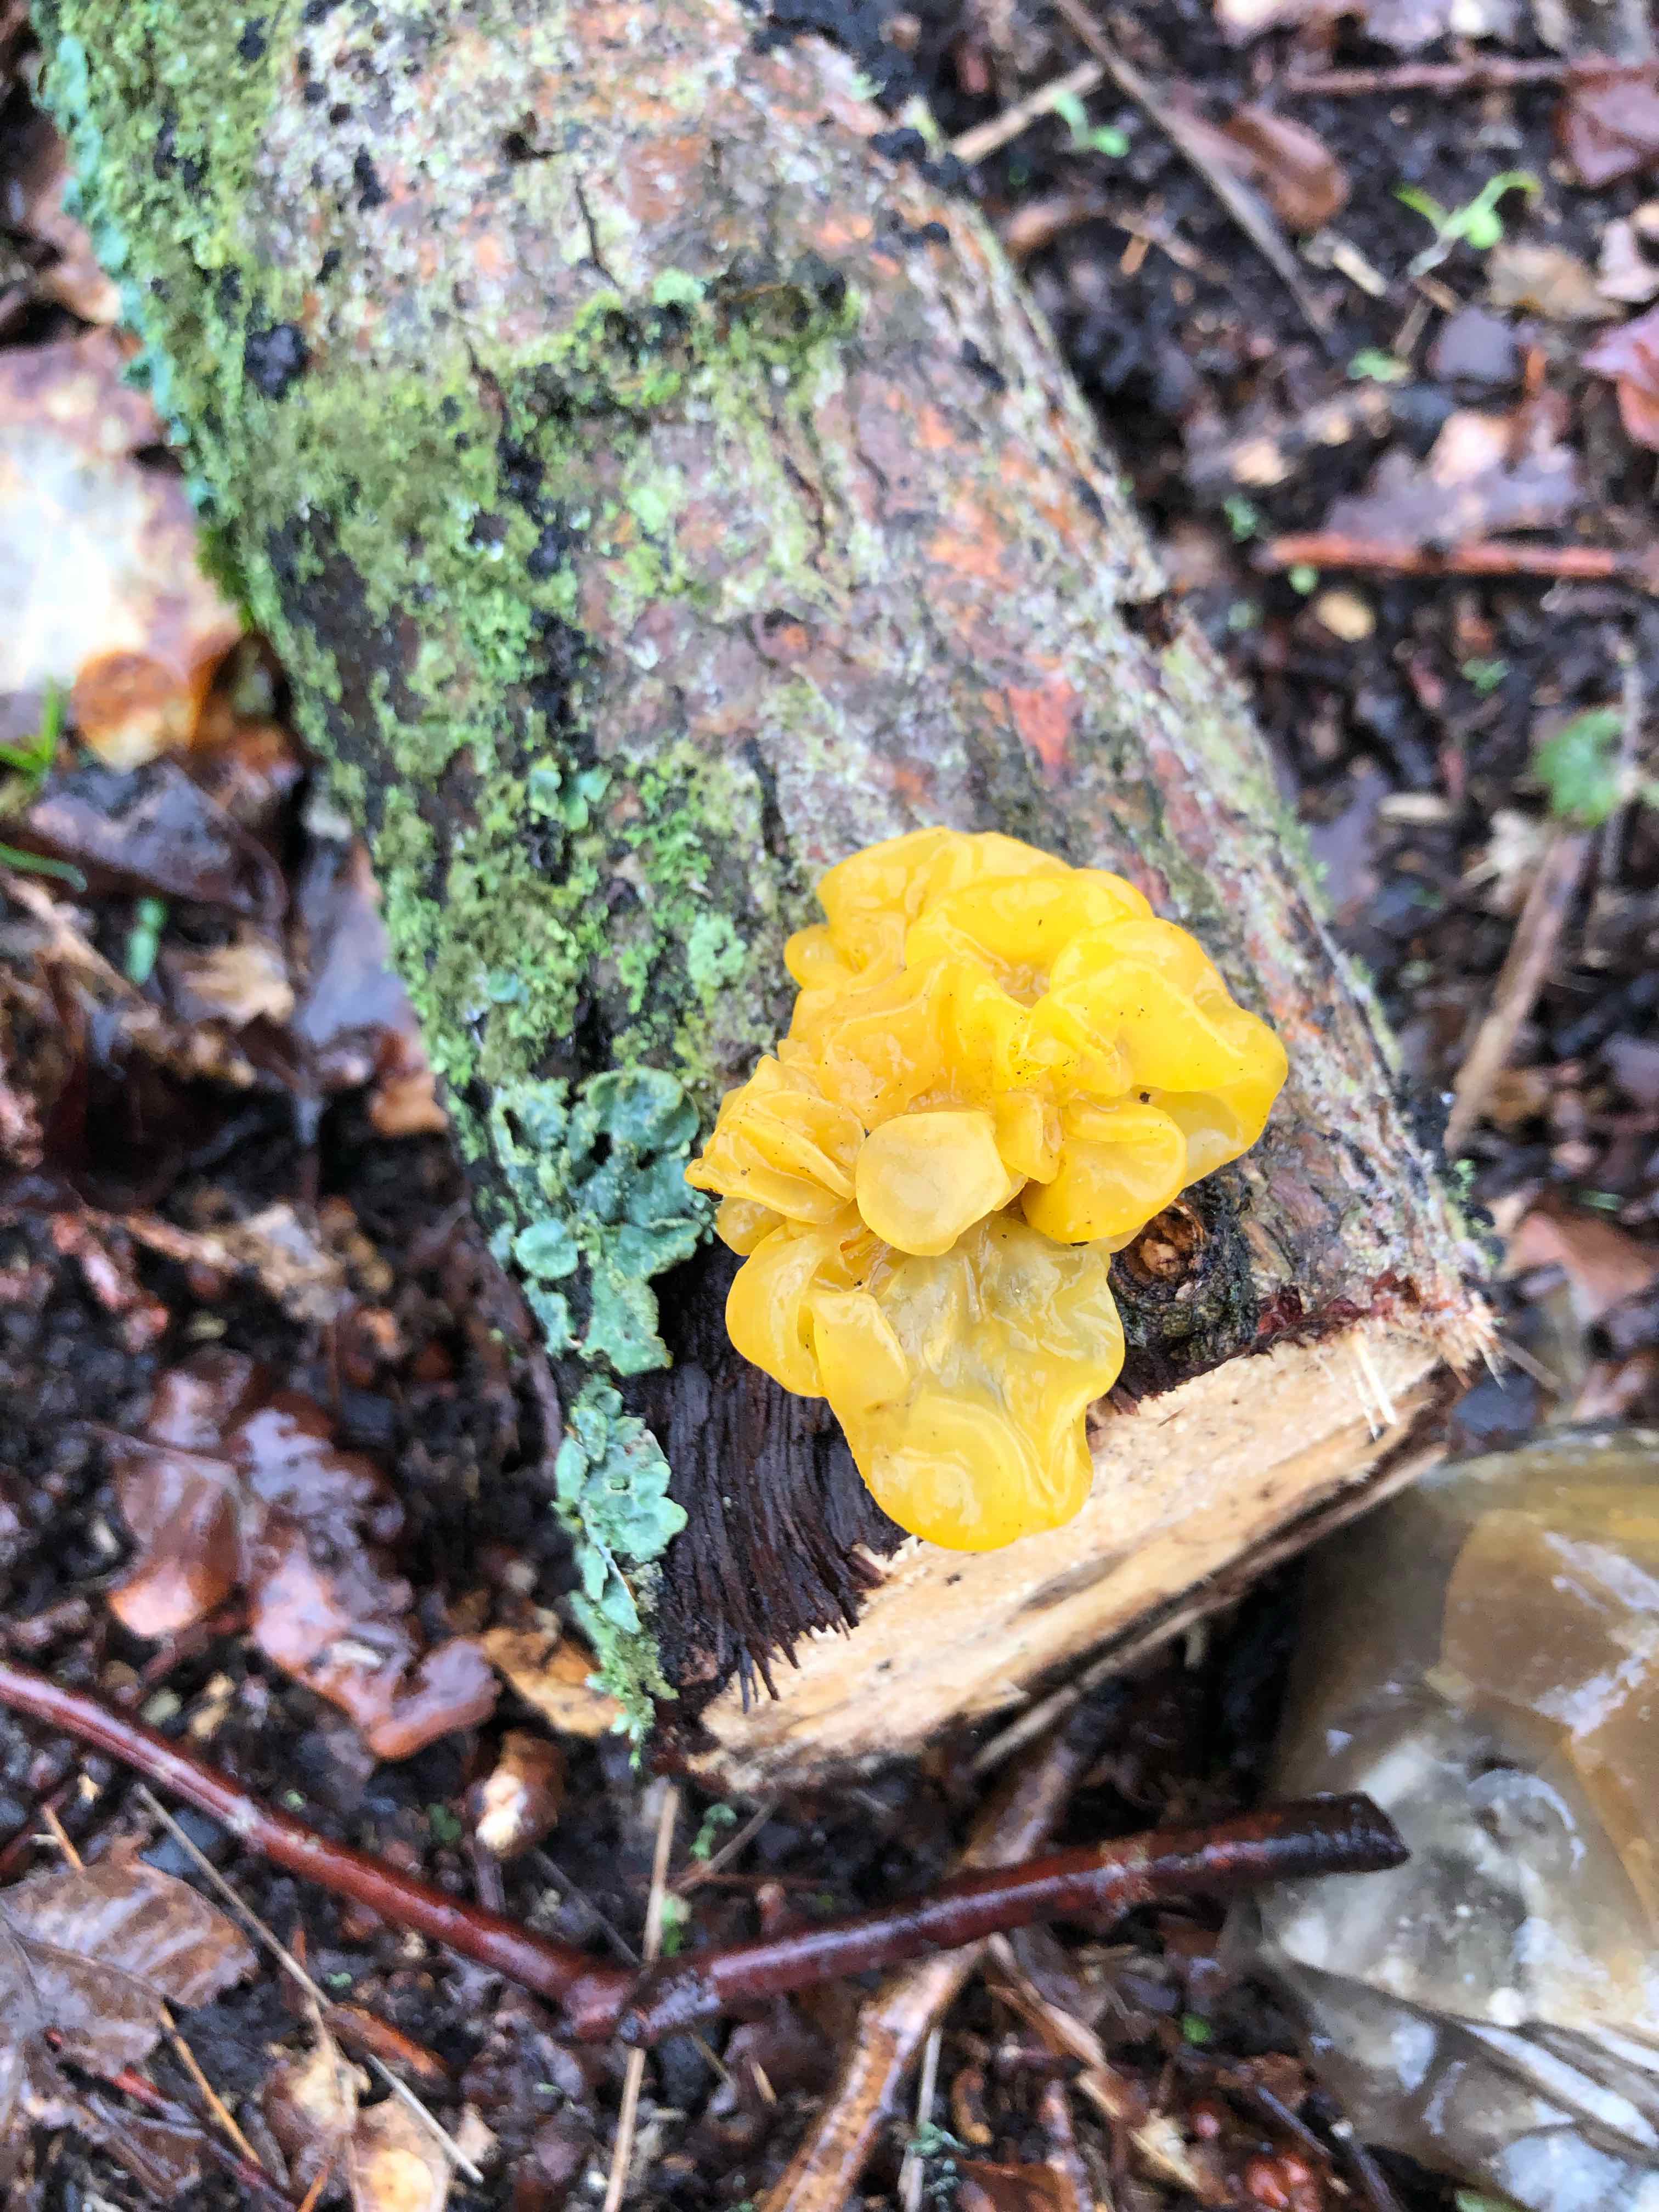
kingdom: Fungi
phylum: Basidiomycota
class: Tremellomycetes
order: Tremellales
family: Tremellaceae
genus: Tremella
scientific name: Tremella mesenterica
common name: gul bævresvamp
